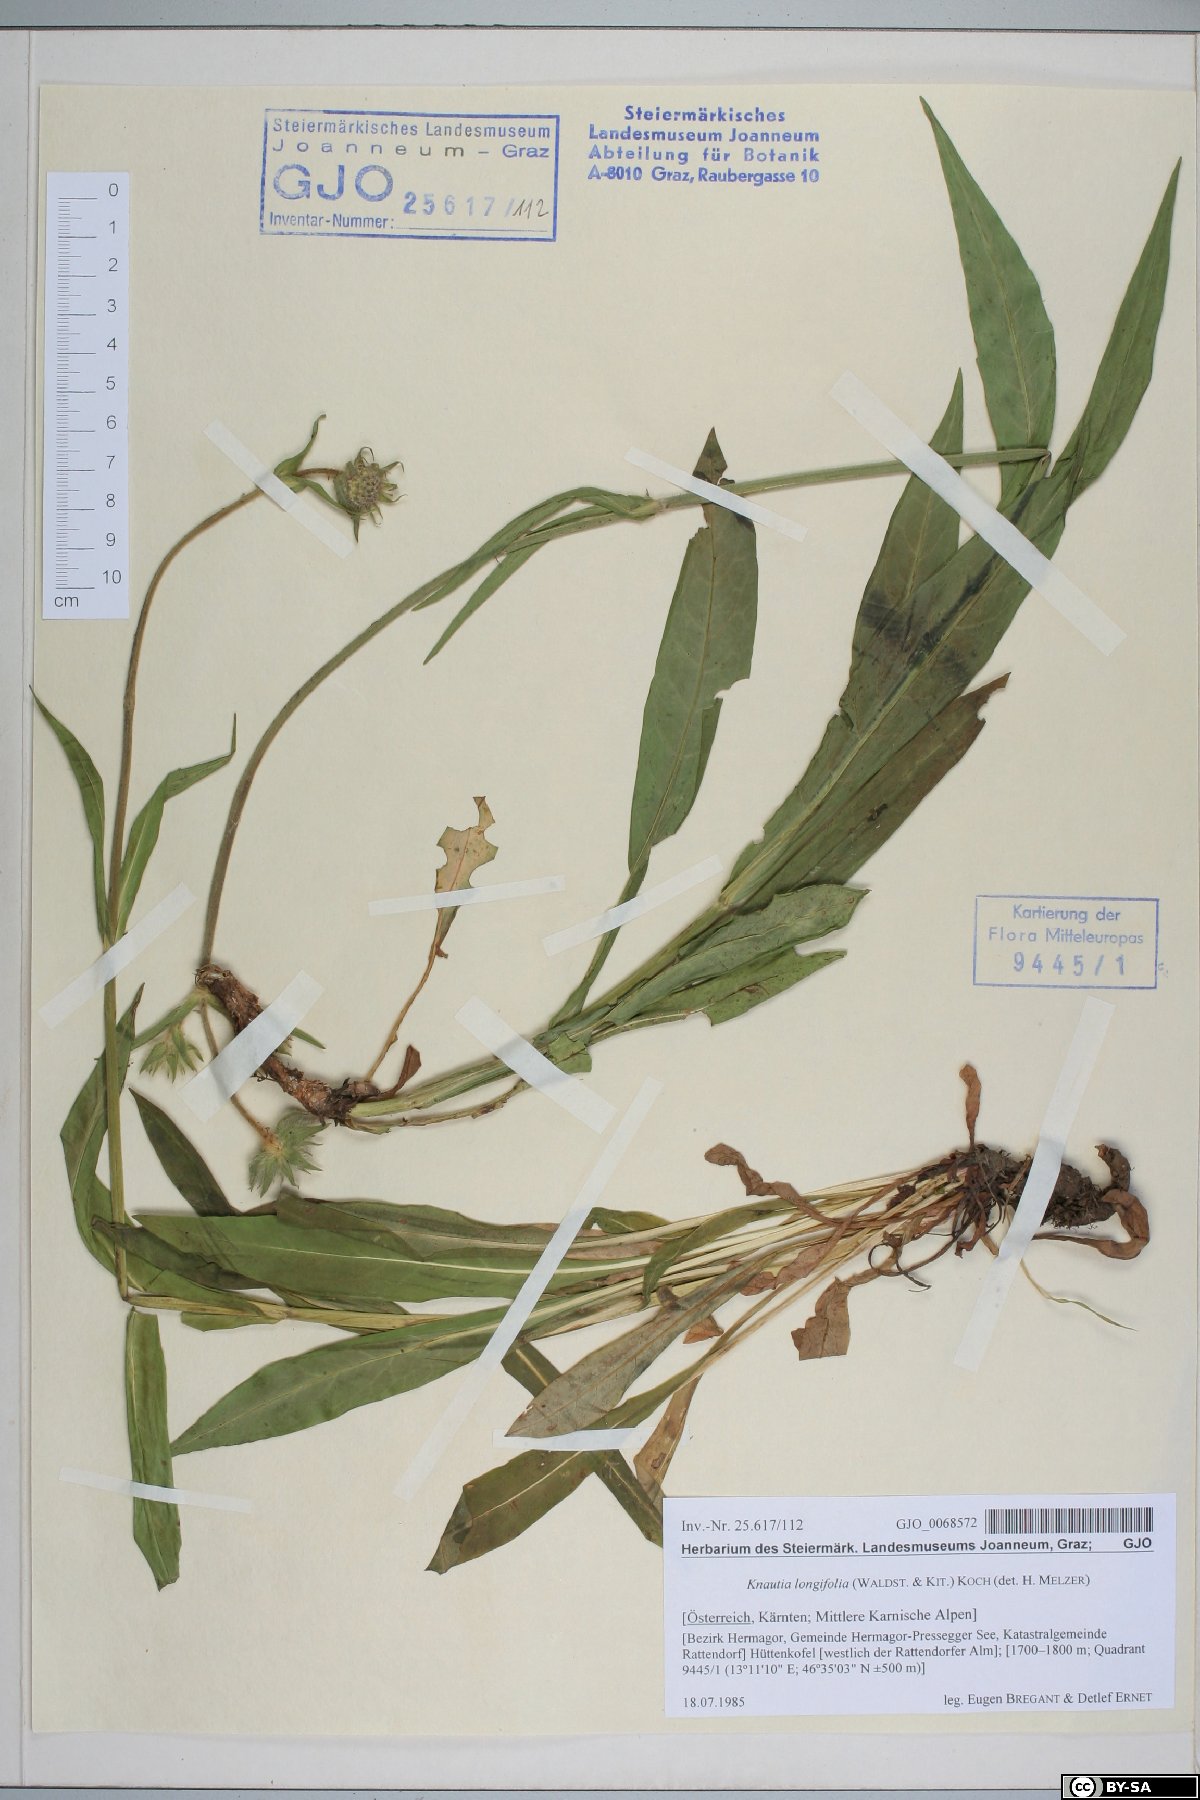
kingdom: Plantae
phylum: Tracheophyta
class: Magnoliopsida
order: Dipsacales
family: Caprifoliaceae
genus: Knautia
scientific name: Knautia longifolia
